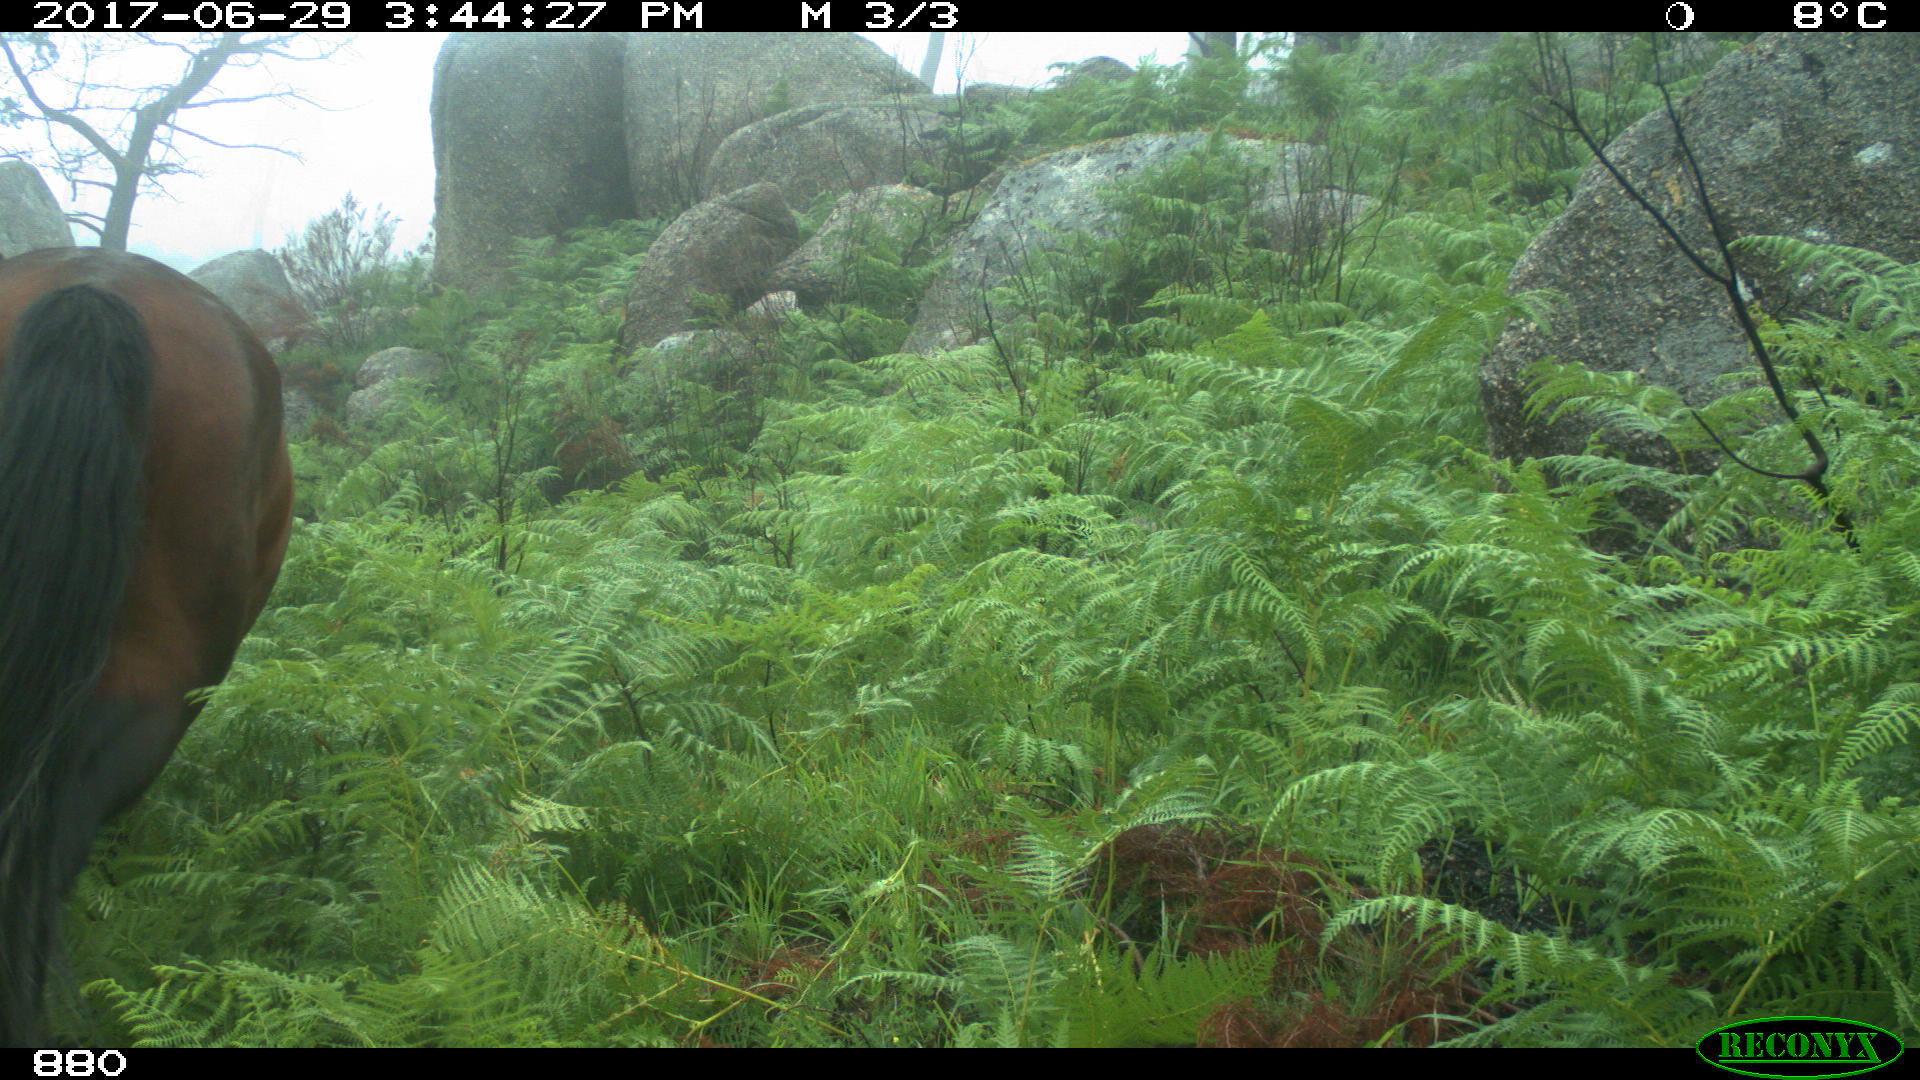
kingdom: Animalia
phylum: Chordata
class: Mammalia
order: Perissodactyla
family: Equidae
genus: Equus
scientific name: Equus caballus
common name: Horse
